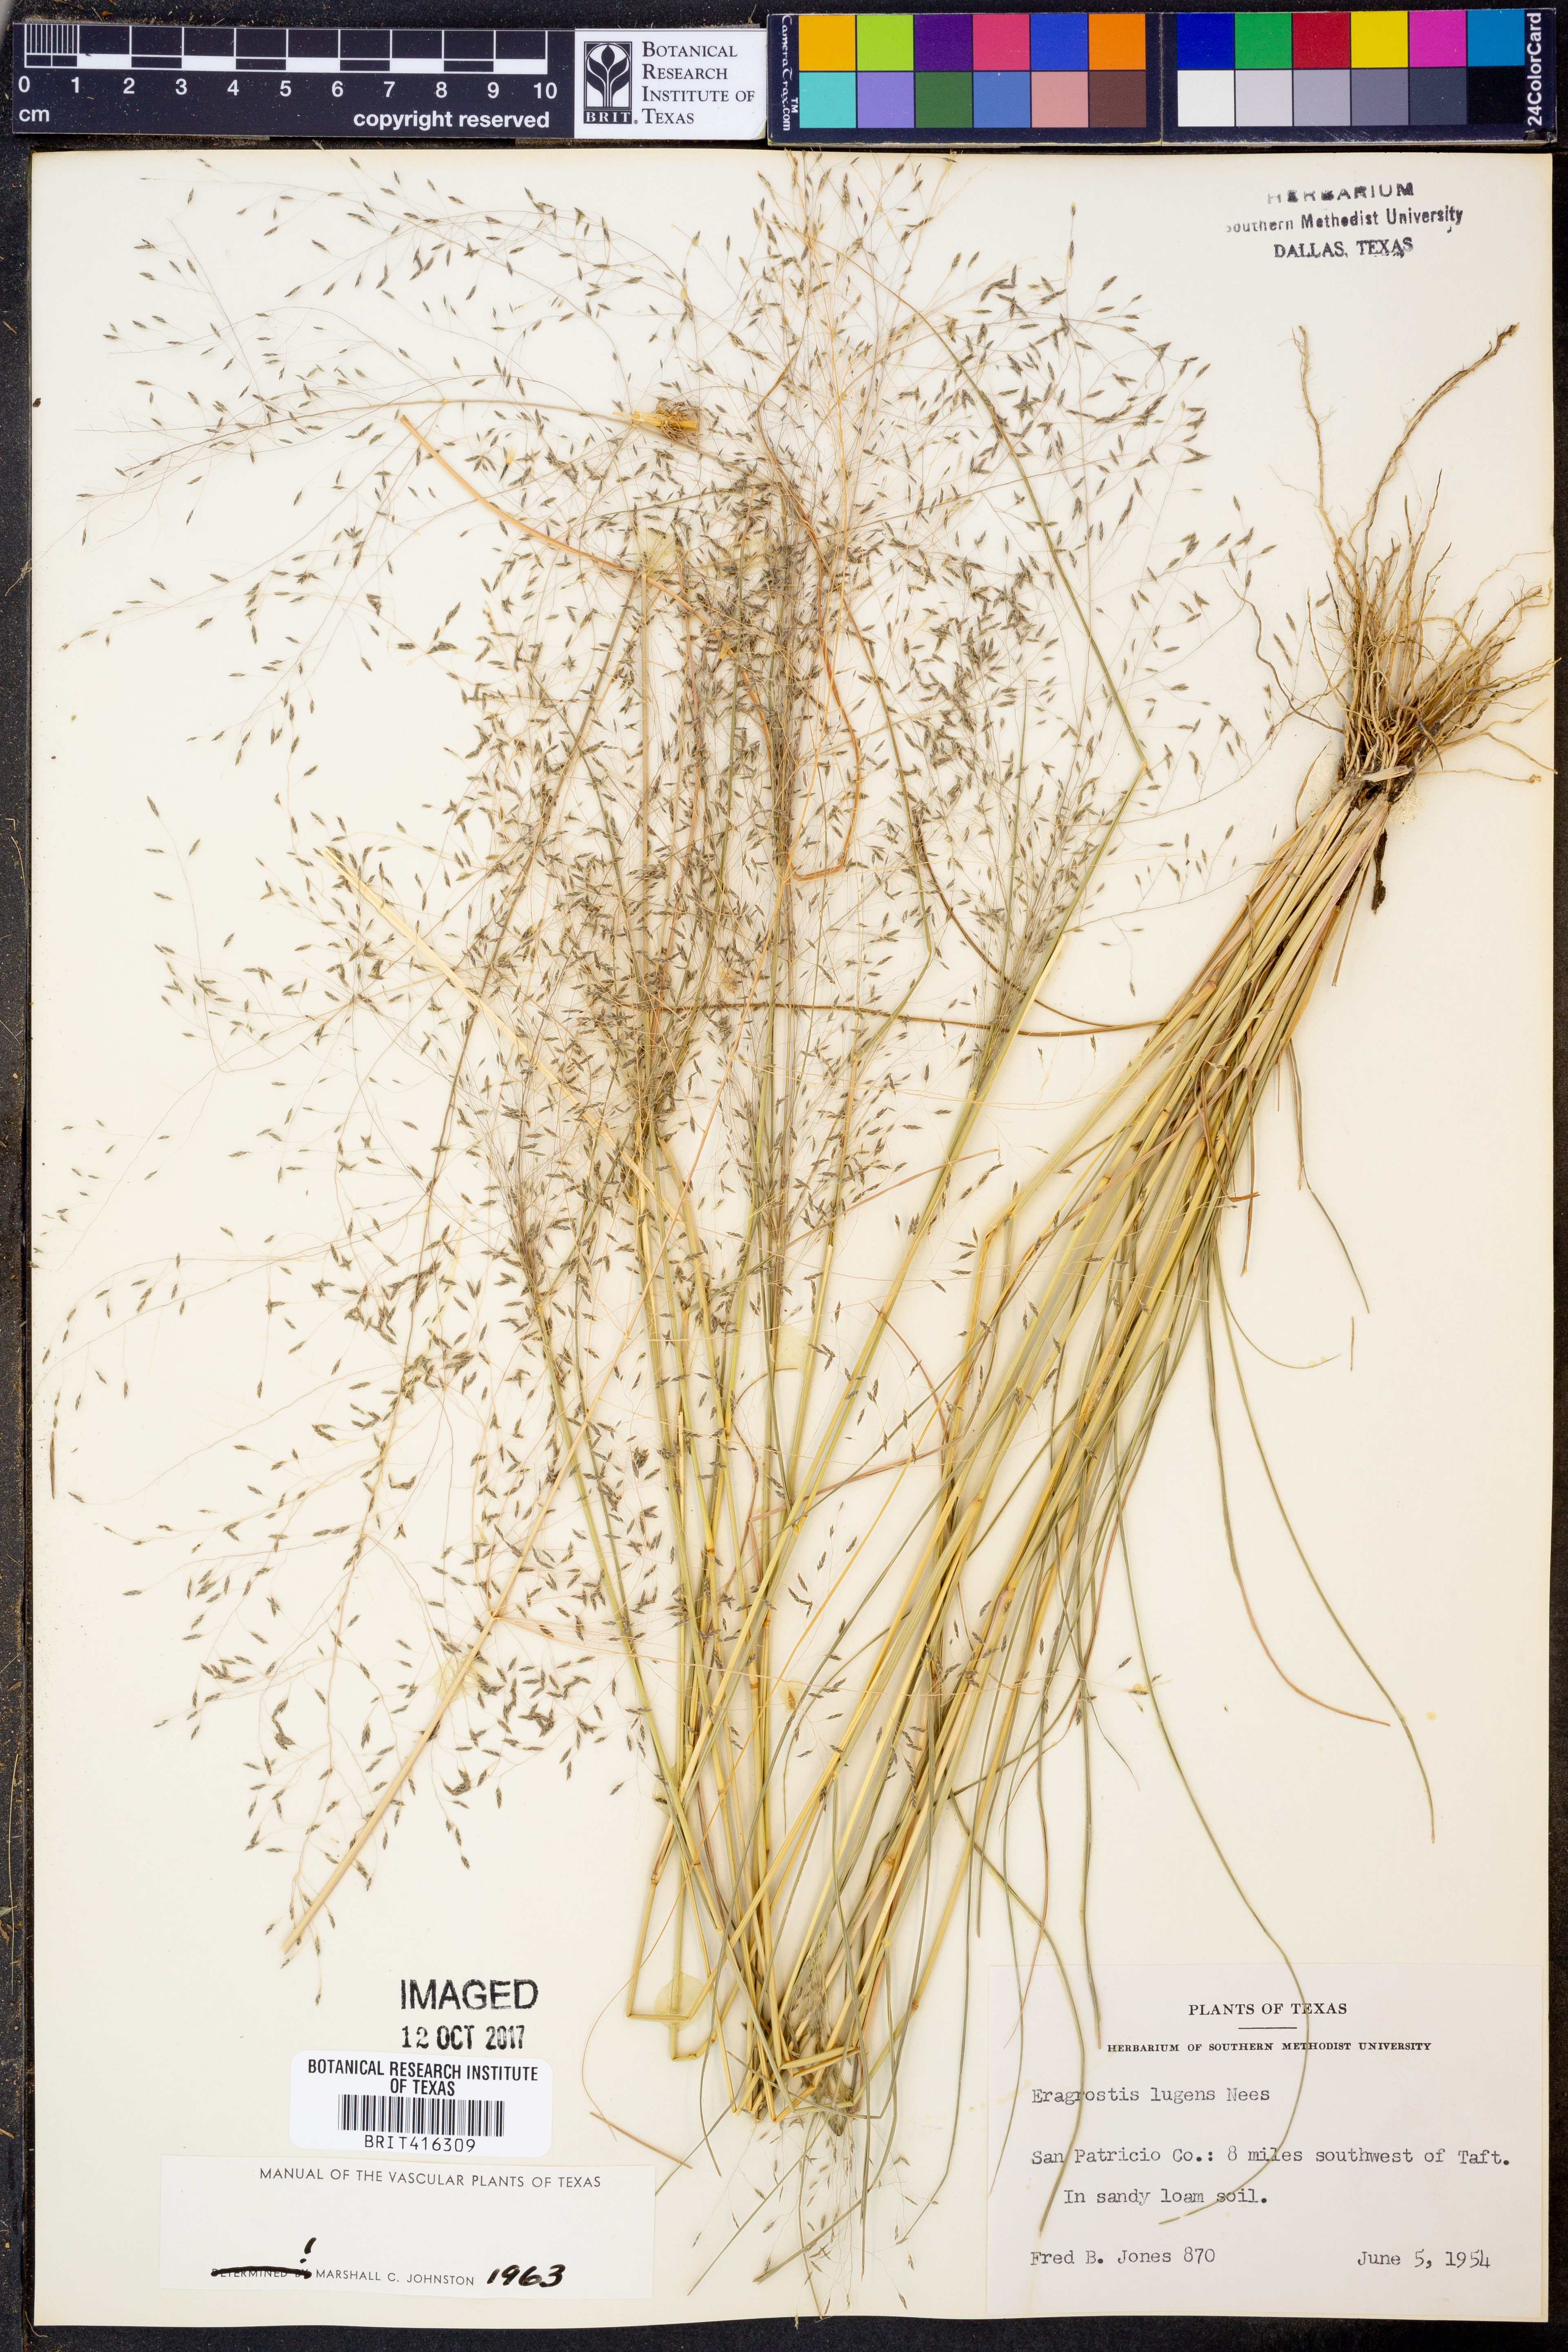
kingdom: Plantae
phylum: Tracheophyta
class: Liliopsida
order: Poales
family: Poaceae
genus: Eragrostis
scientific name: Eragrostis capillaris
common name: Hair-like lovegrass
